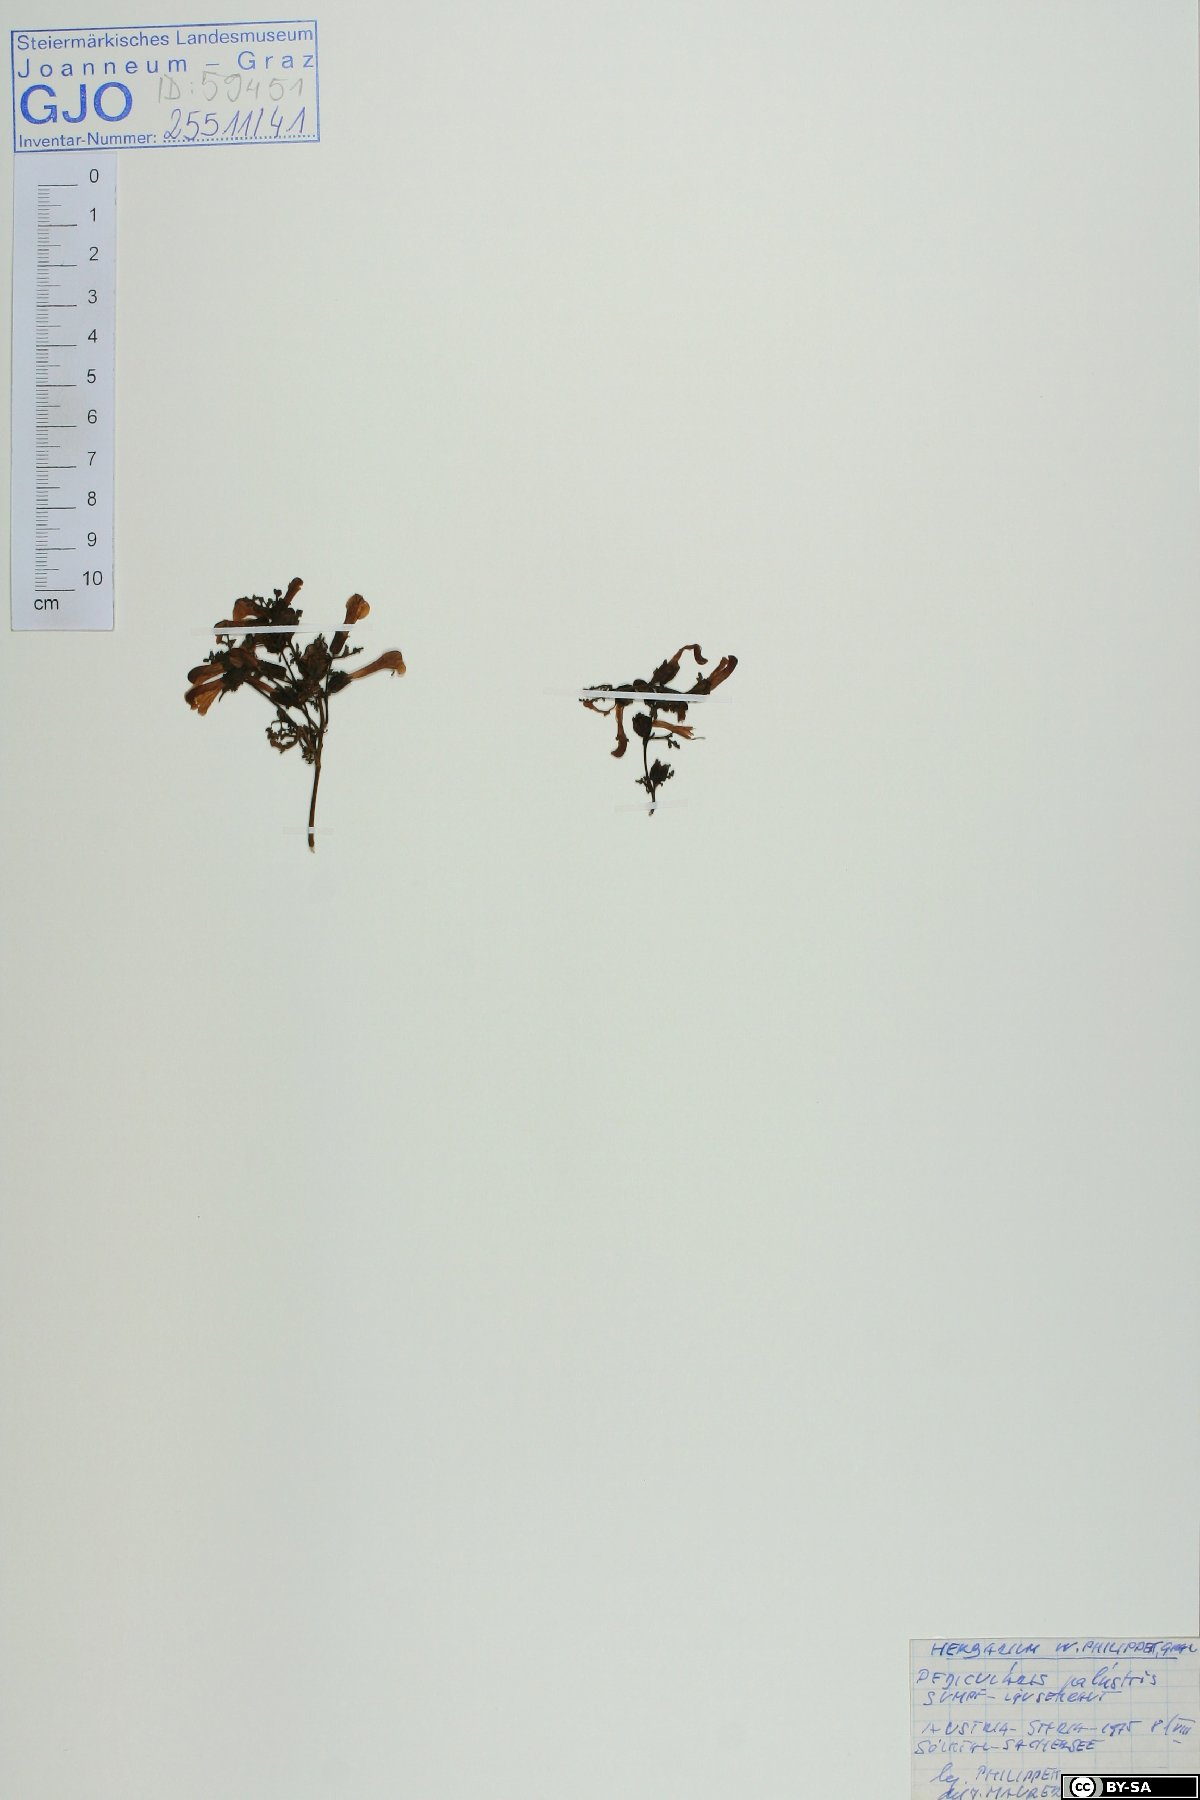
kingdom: Plantae
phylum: Tracheophyta
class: Magnoliopsida
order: Lamiales
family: Orobanchaceae
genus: Pedicularis
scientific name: Pedicularis palustris
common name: Marsh lousewort
